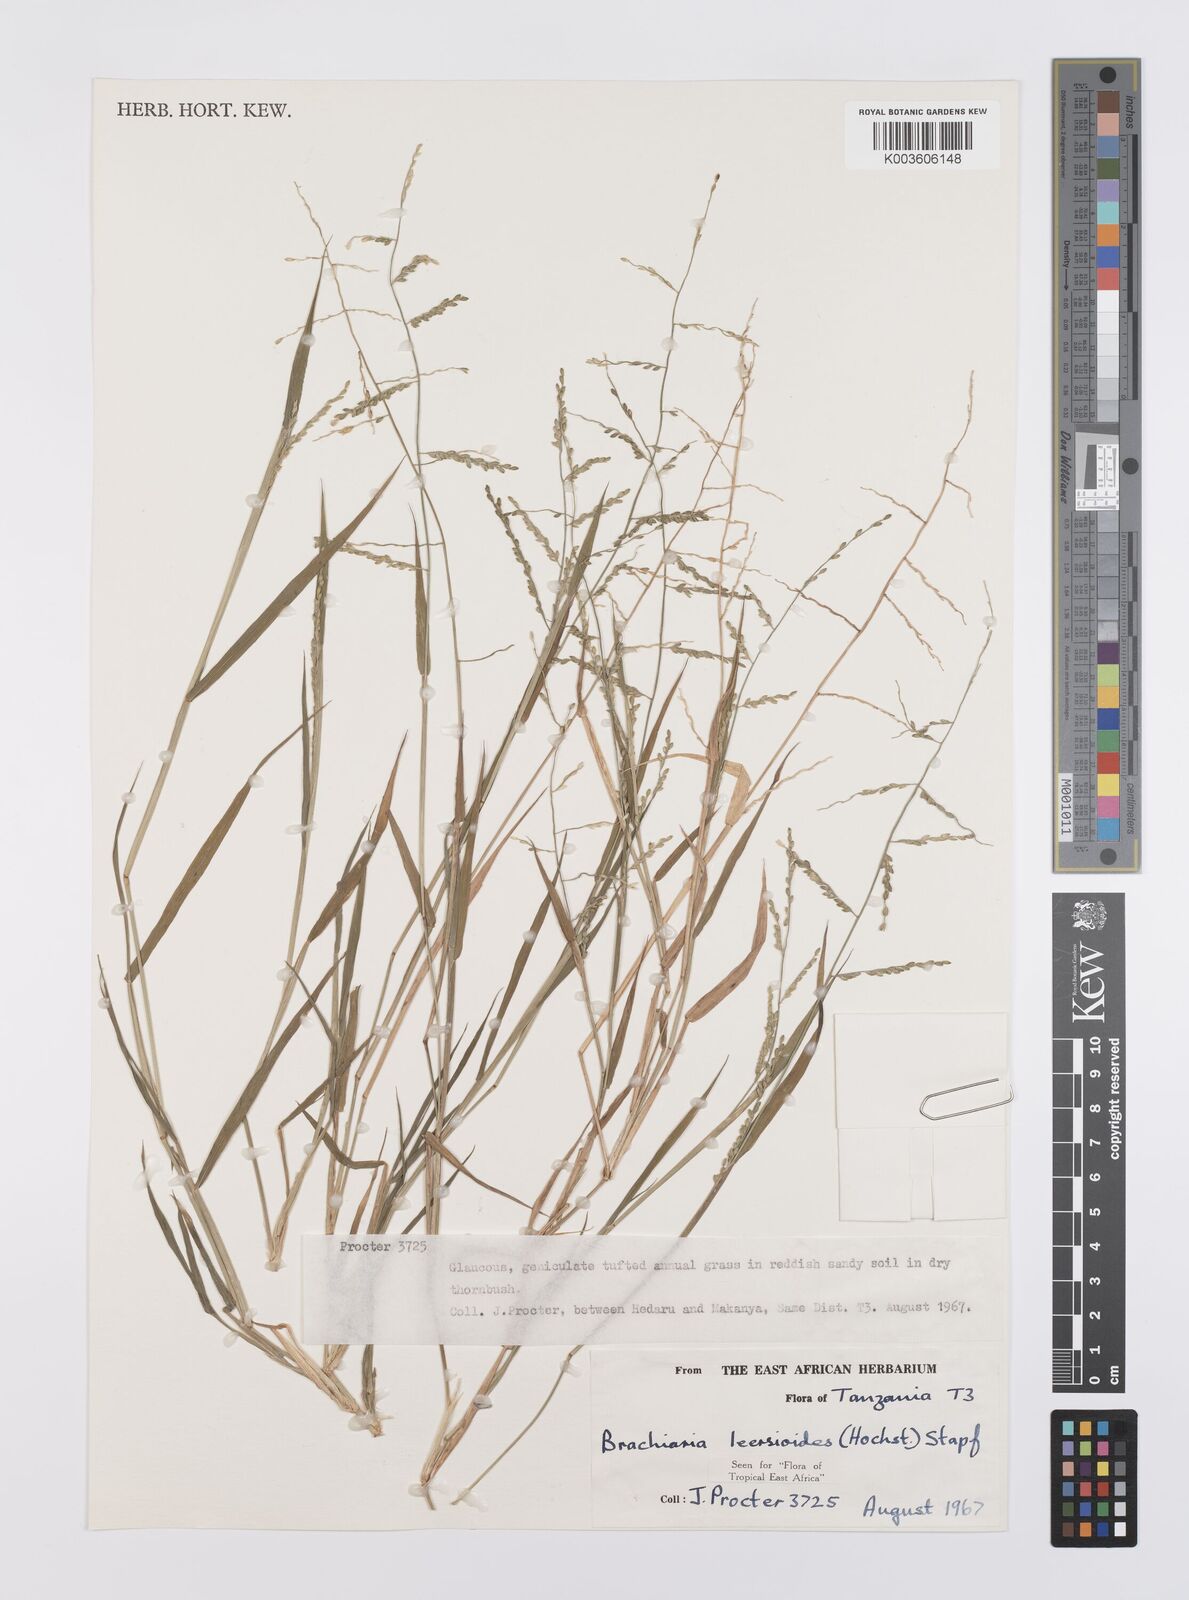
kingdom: Plantae
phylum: Tracheophyta
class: Liliopsida
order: Poales
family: Poaceae
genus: Urochloa
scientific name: Urochloa leersioides
